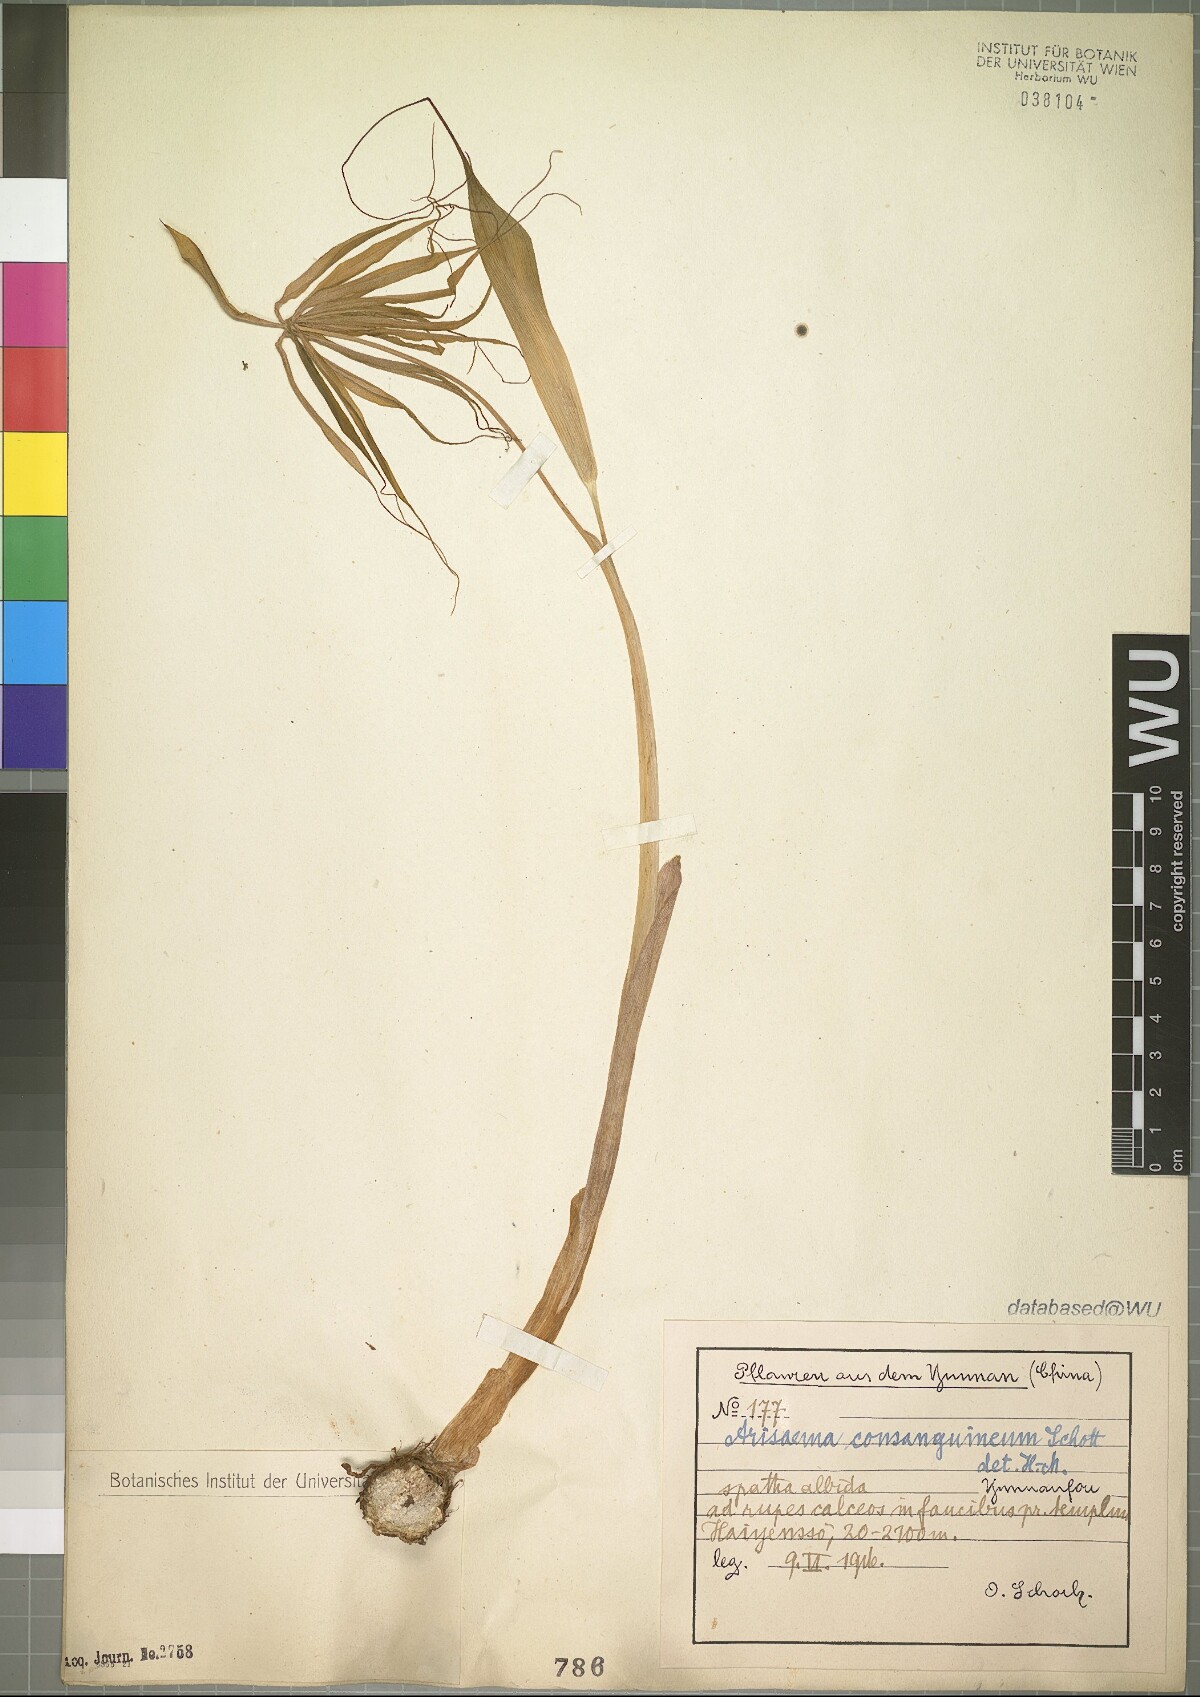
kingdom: Plantae
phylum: Tracheophyta
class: Liliopsida
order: Alismatales
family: Araceae
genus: Arisaema
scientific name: Arisaema consanguineum
